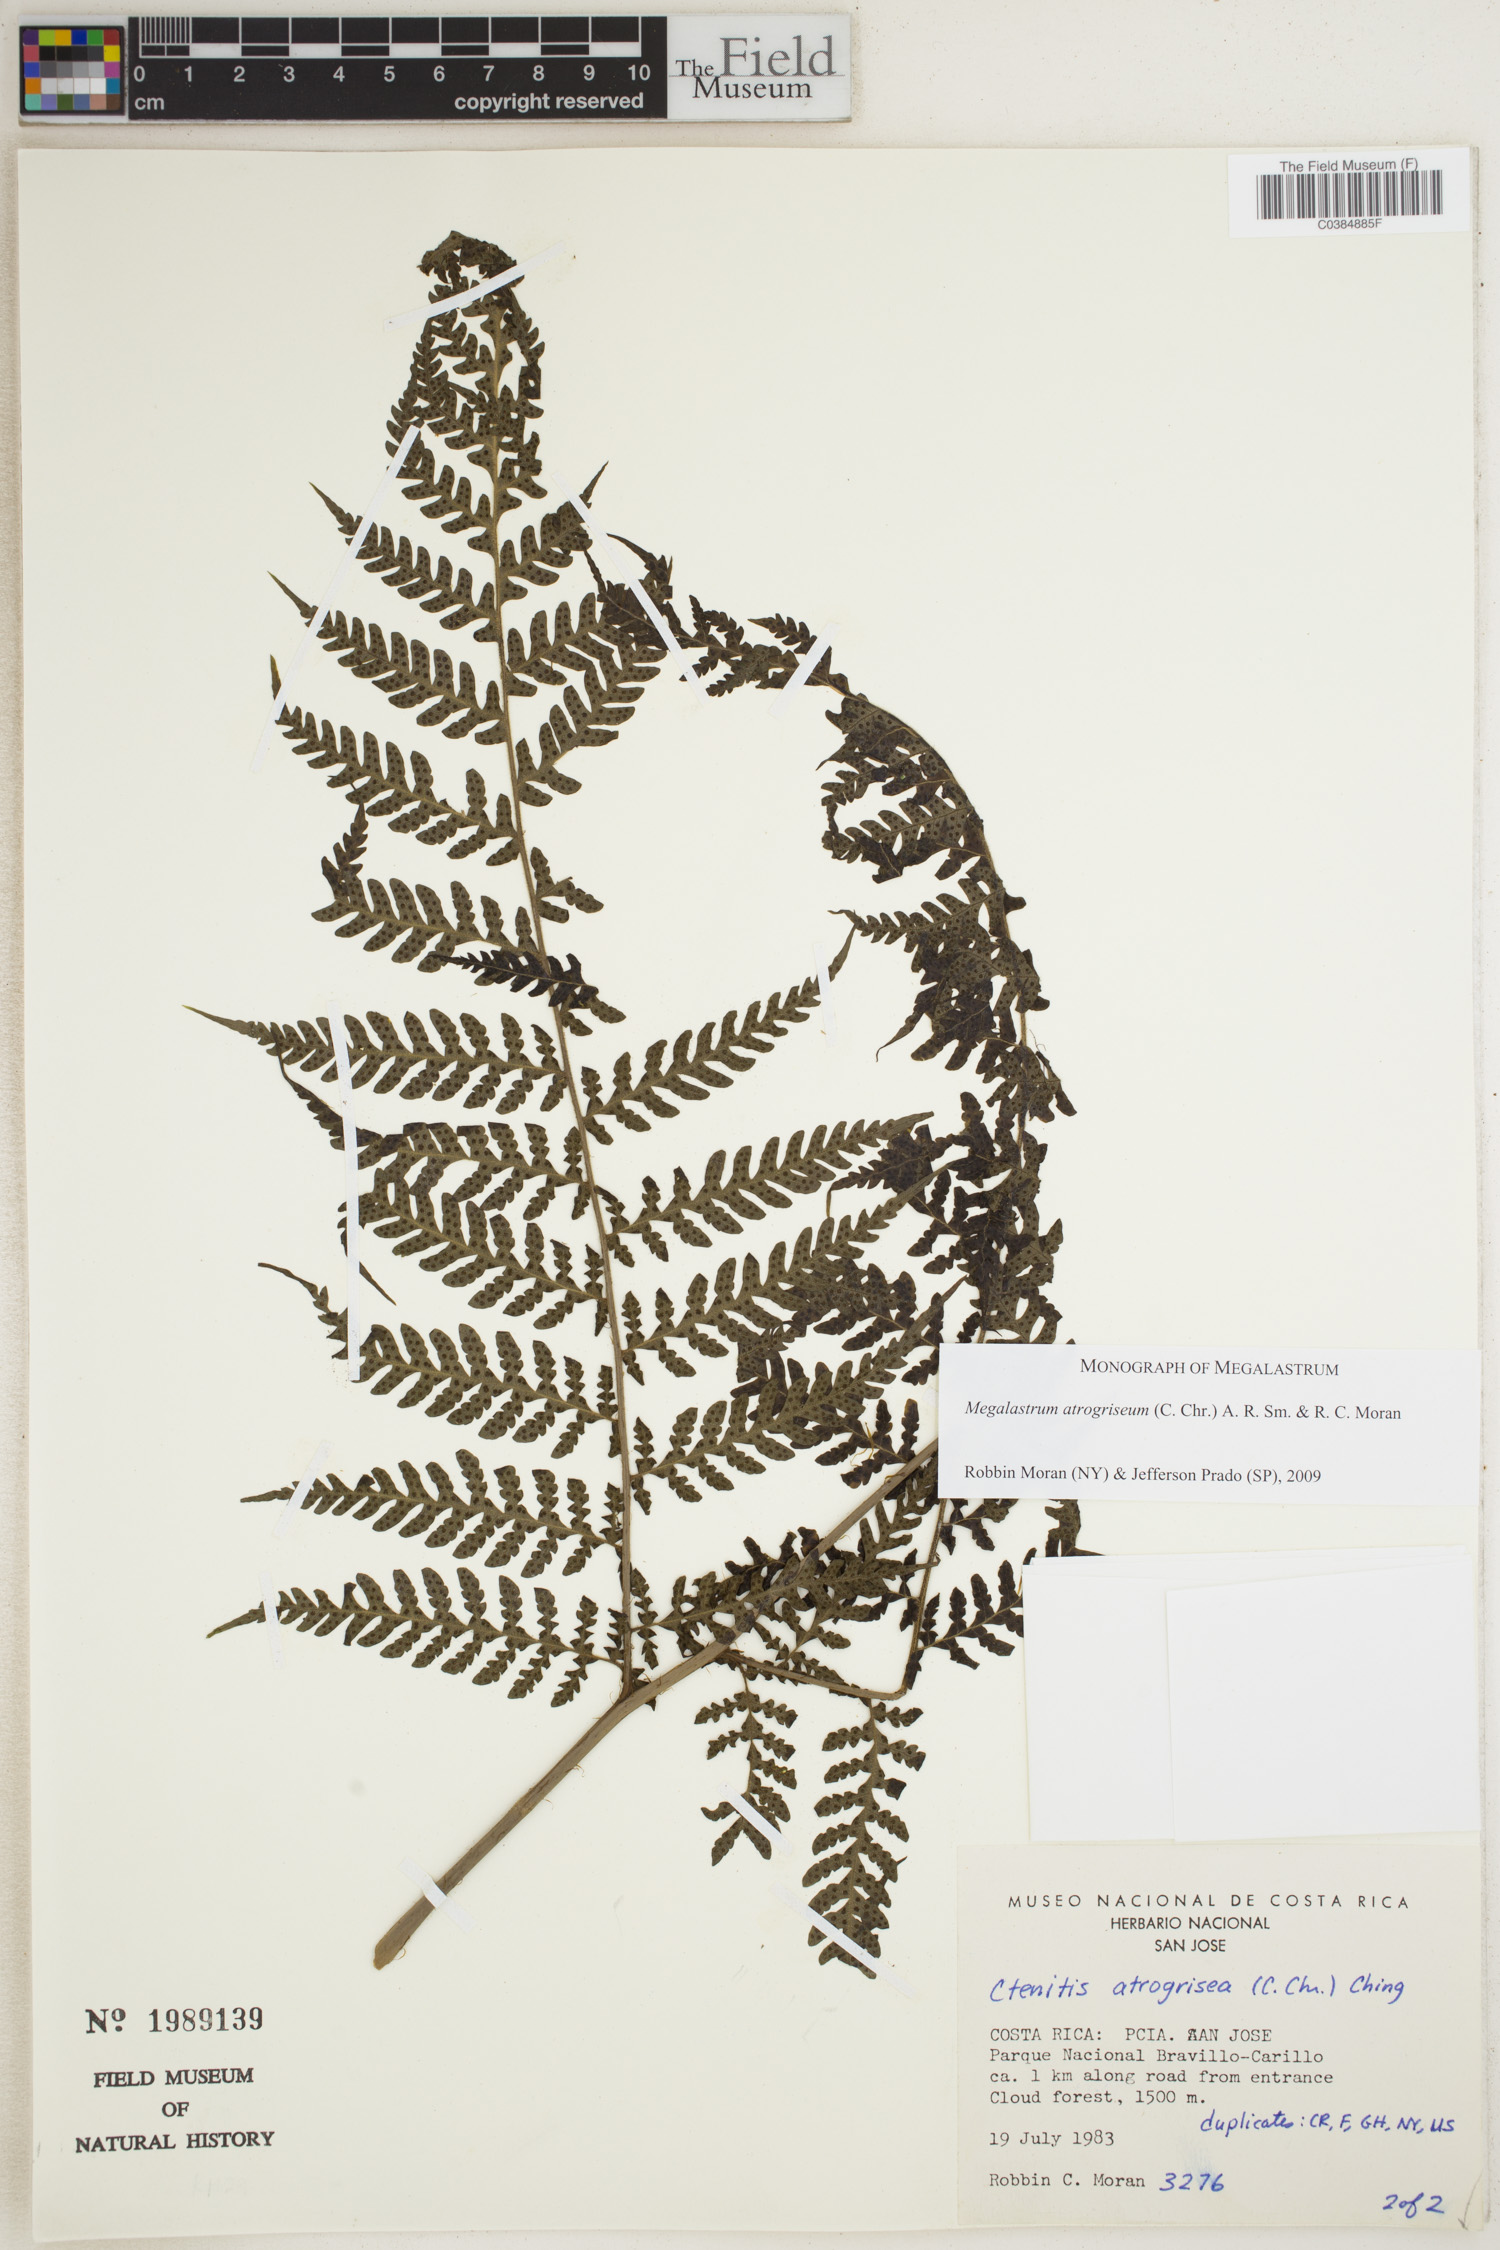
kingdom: Plantae
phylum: Tracheophyta
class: Polypodiopsida
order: Polypodiales
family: Dryopteridaceae
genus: Megalastrum
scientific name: Megalastrum atrogriseum
